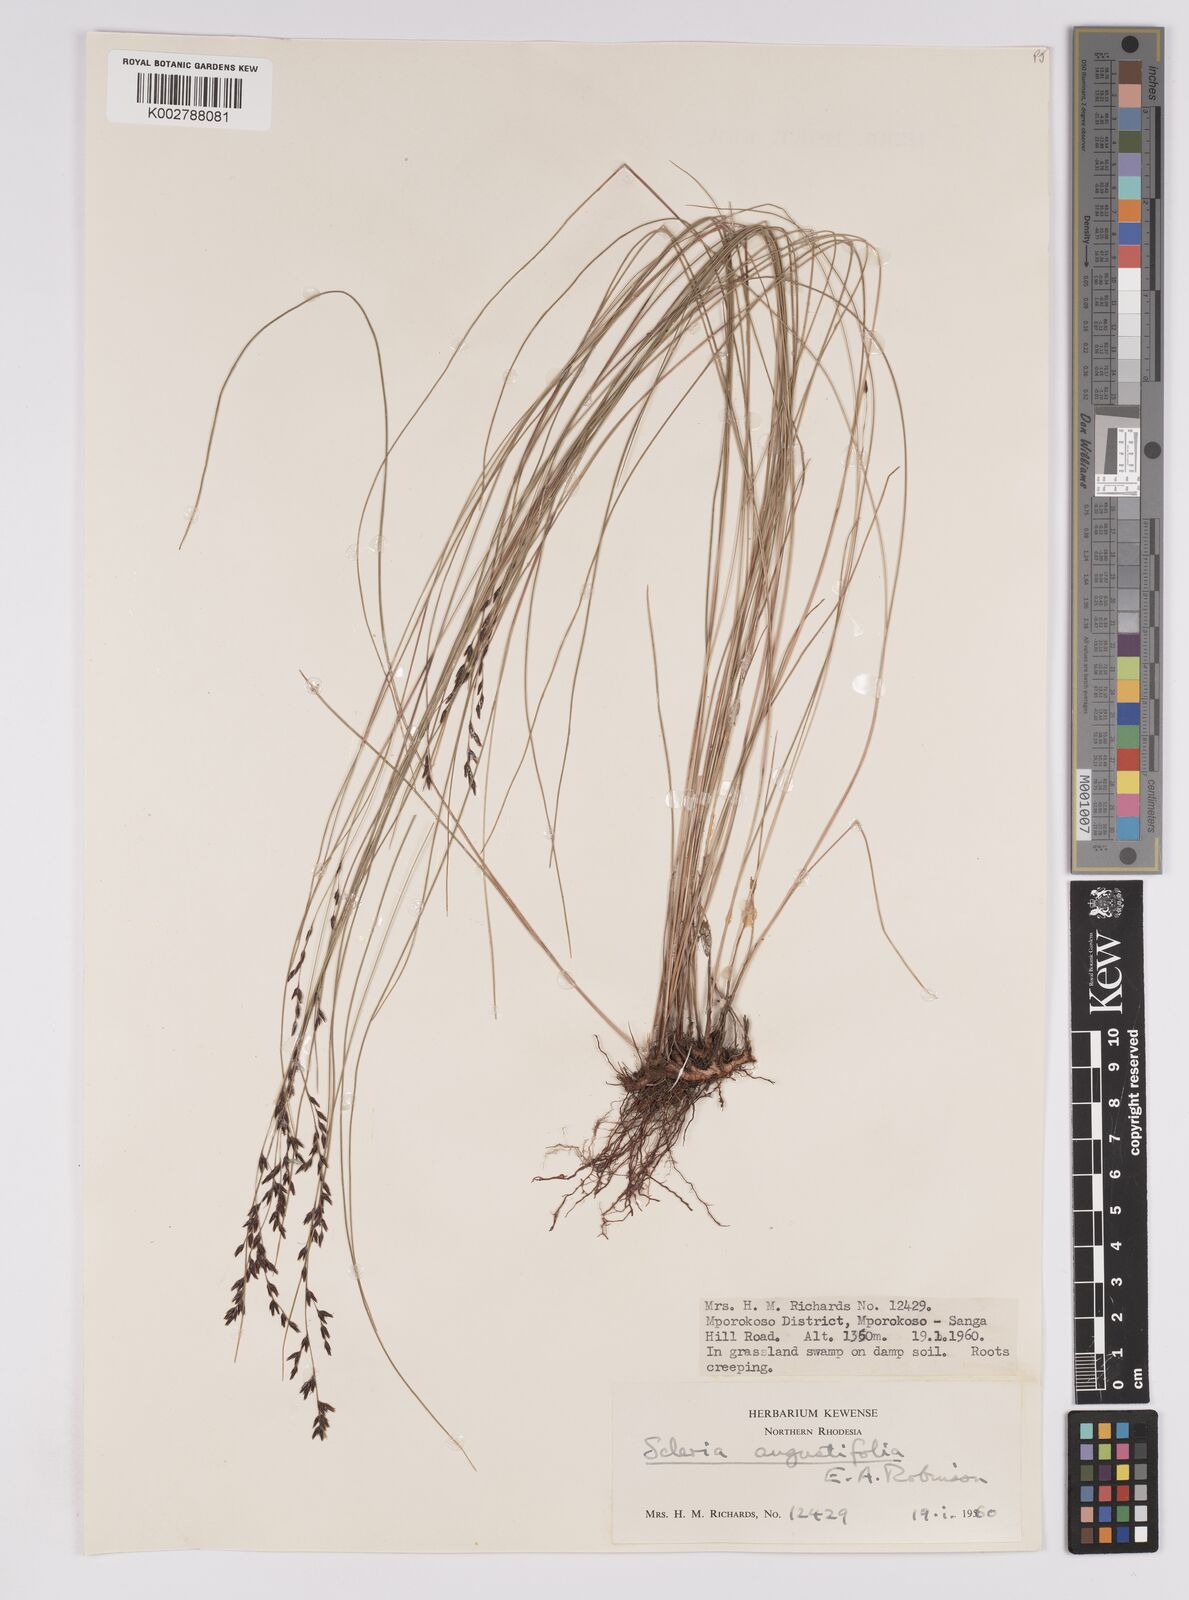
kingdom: Plantae
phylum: Tracheophyta
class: Liliopsida
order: Poales
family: Cyperaceae
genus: Scleria
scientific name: Scleria angustifolia
